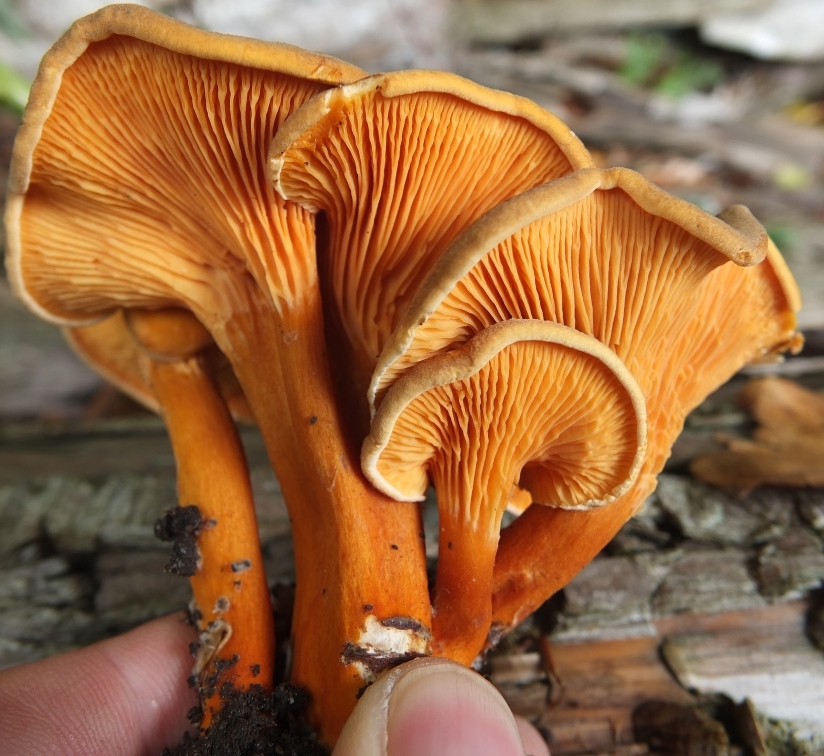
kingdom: Fungi
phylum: Basidiomycota
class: Agaricomycetes
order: Boletales
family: Hygrophoropsidaceae
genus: Hygrophoropsis
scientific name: Hygrophoropsis rufa
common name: brunfiltet orangekantarel
